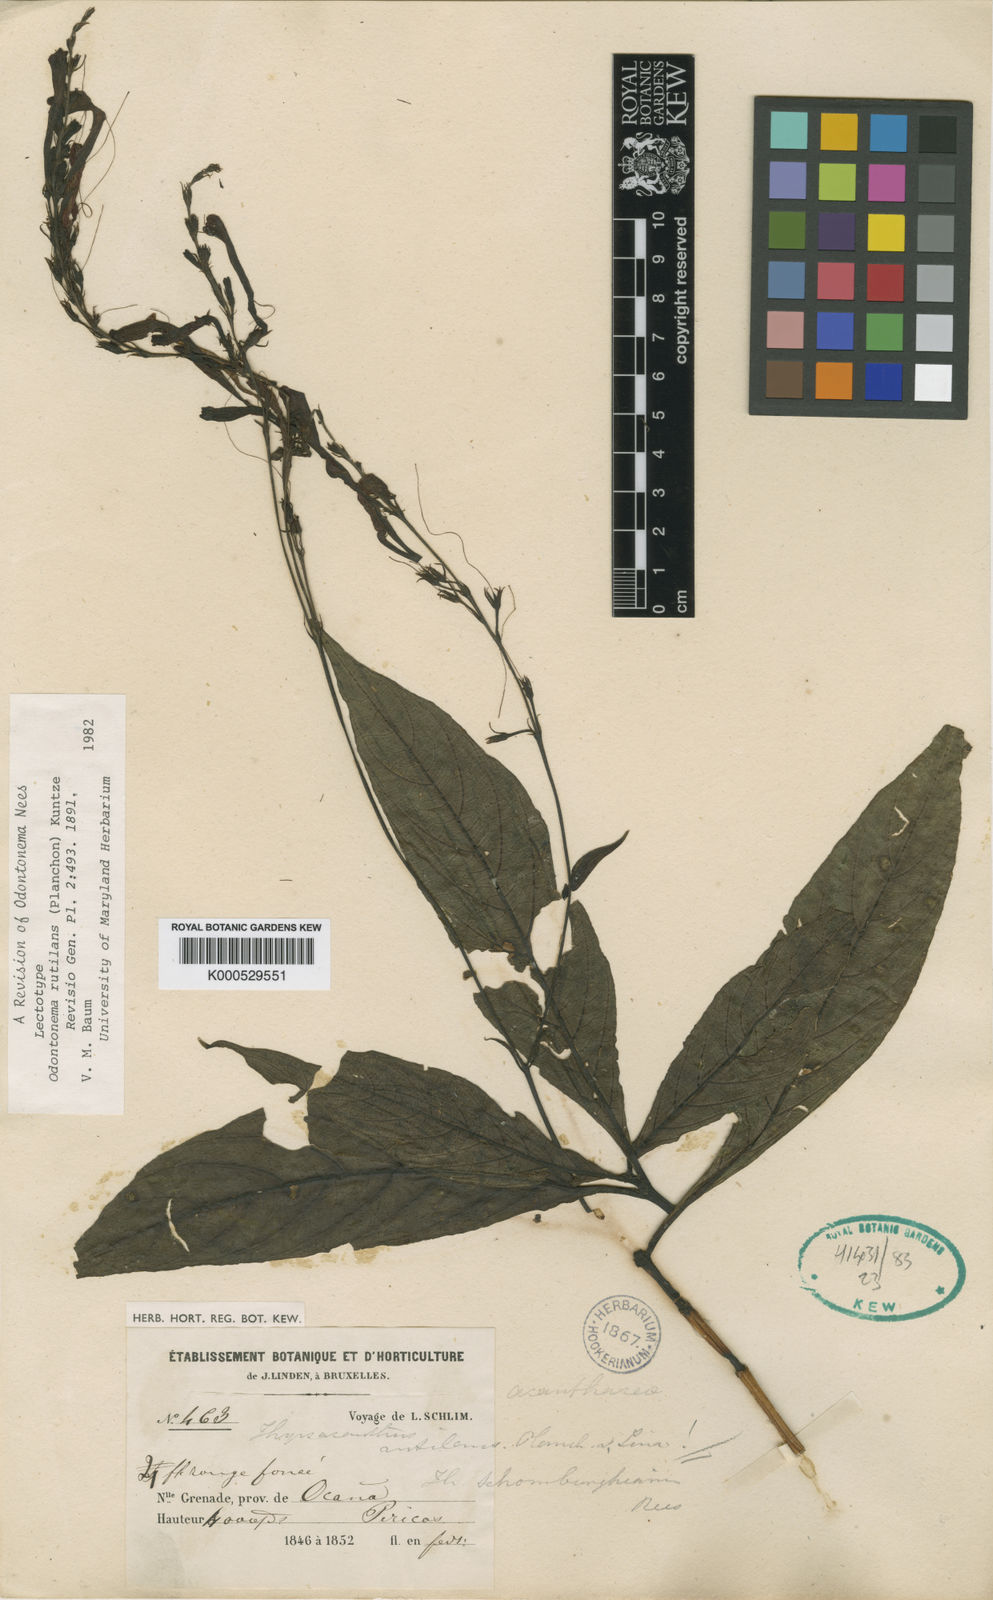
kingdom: Plantae
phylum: Tracheophyta
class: Magnoliopsida
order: Lamiales
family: Acanthaceae
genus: Odontonema
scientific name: Odontonema rutilans
